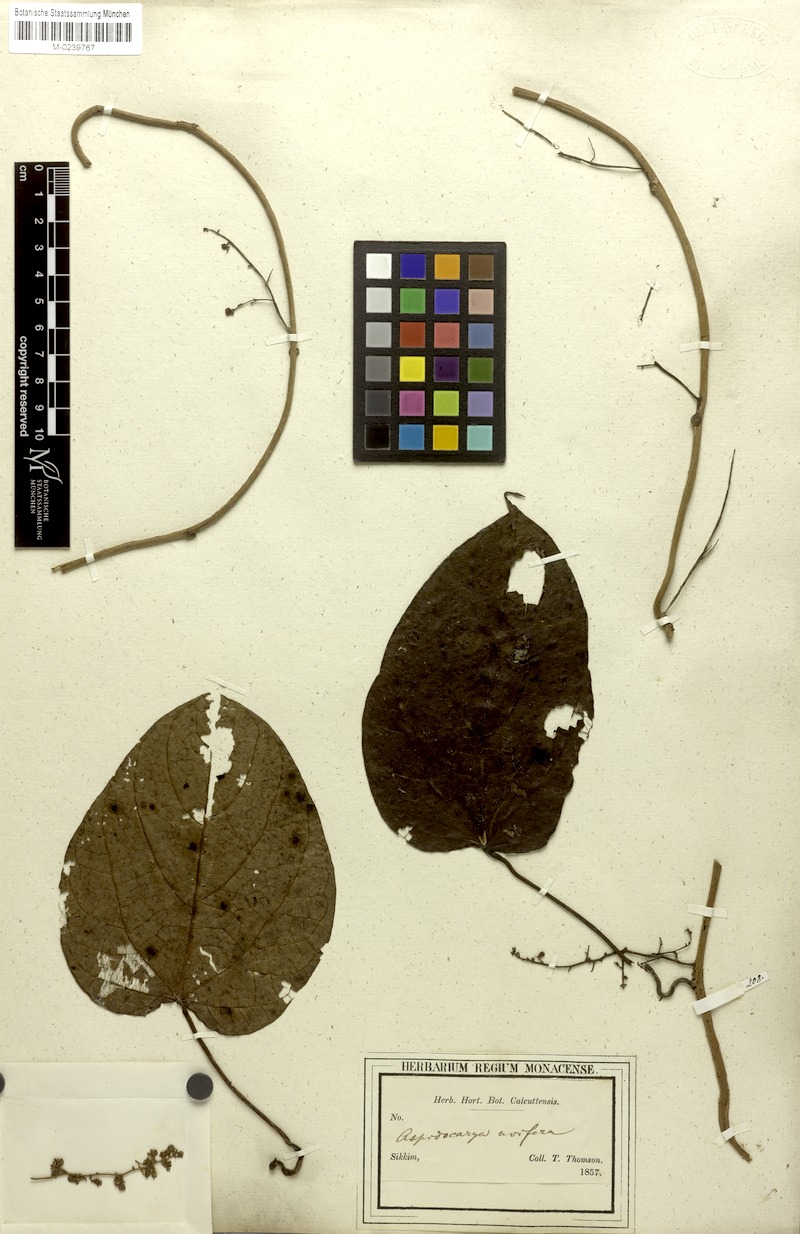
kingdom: Plantae
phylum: Tracheophyta
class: Magnoliopsida
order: Ranunculales
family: Menispermaceae
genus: Aspidocarya
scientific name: Aspidocarya uvifera
